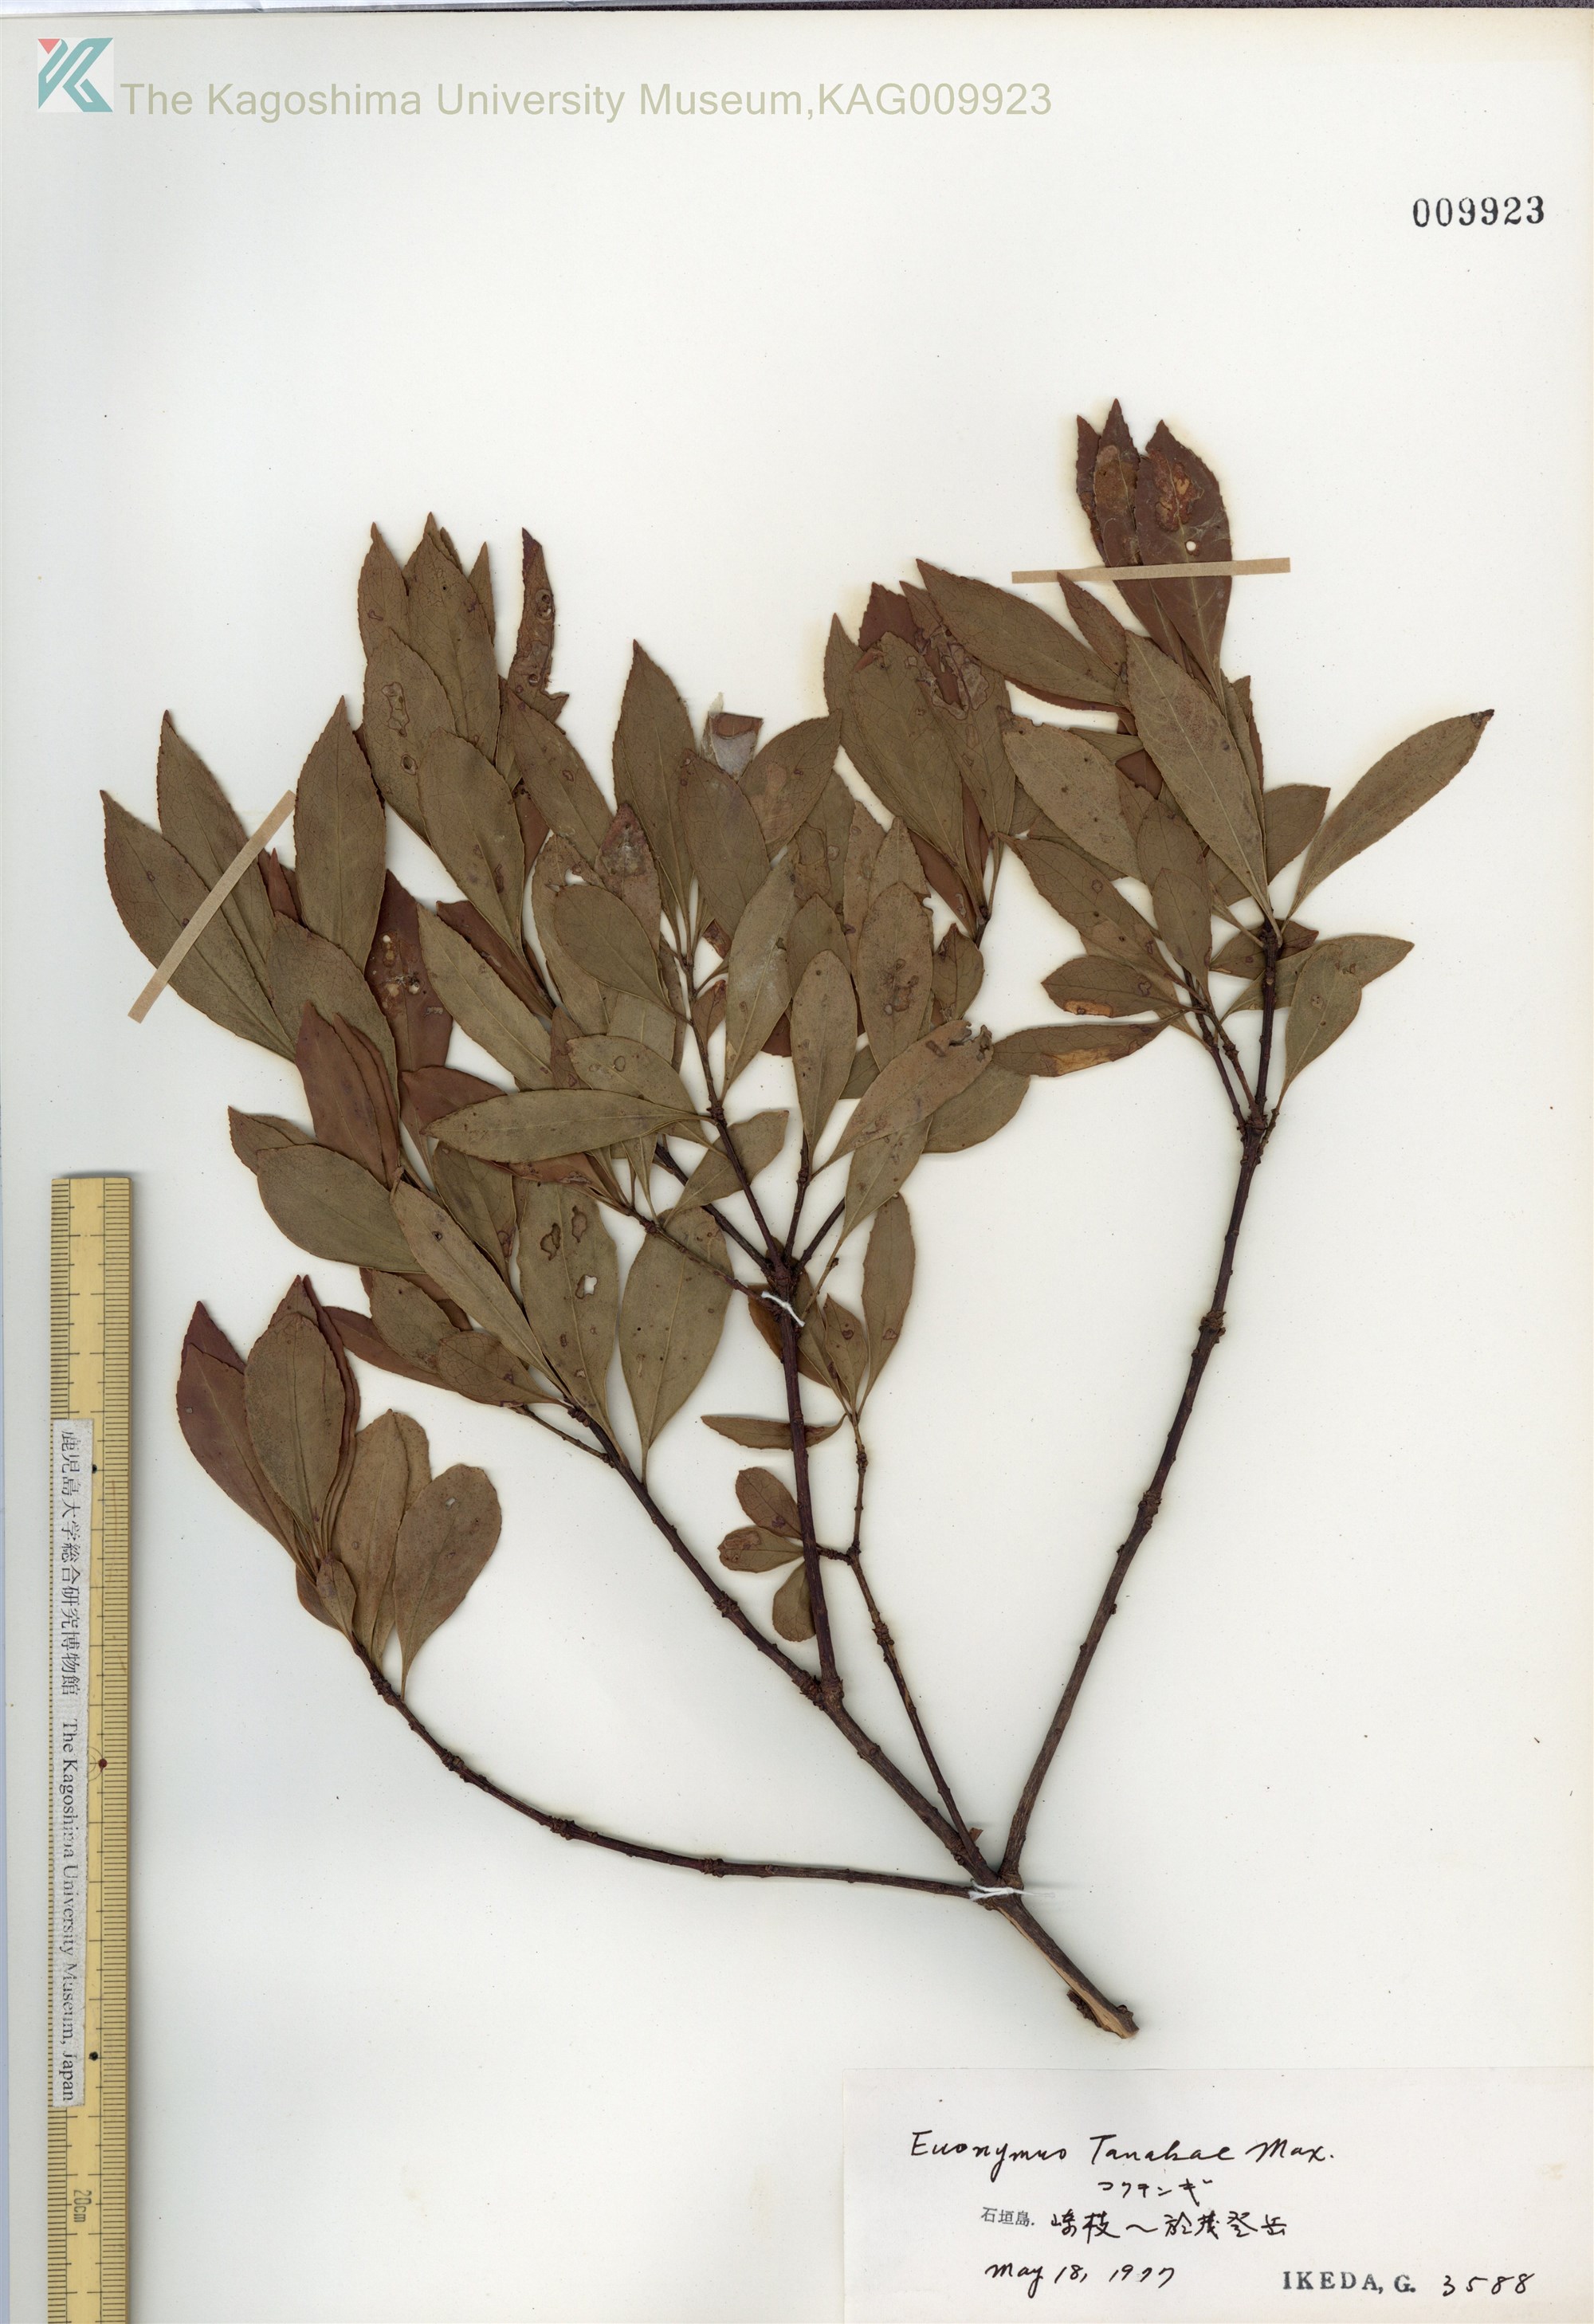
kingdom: Plantae
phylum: Tracheophyta
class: Magnoliopsida
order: Celastrales
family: Celastraceae
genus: Euonymus
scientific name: Euonymus carnosus
